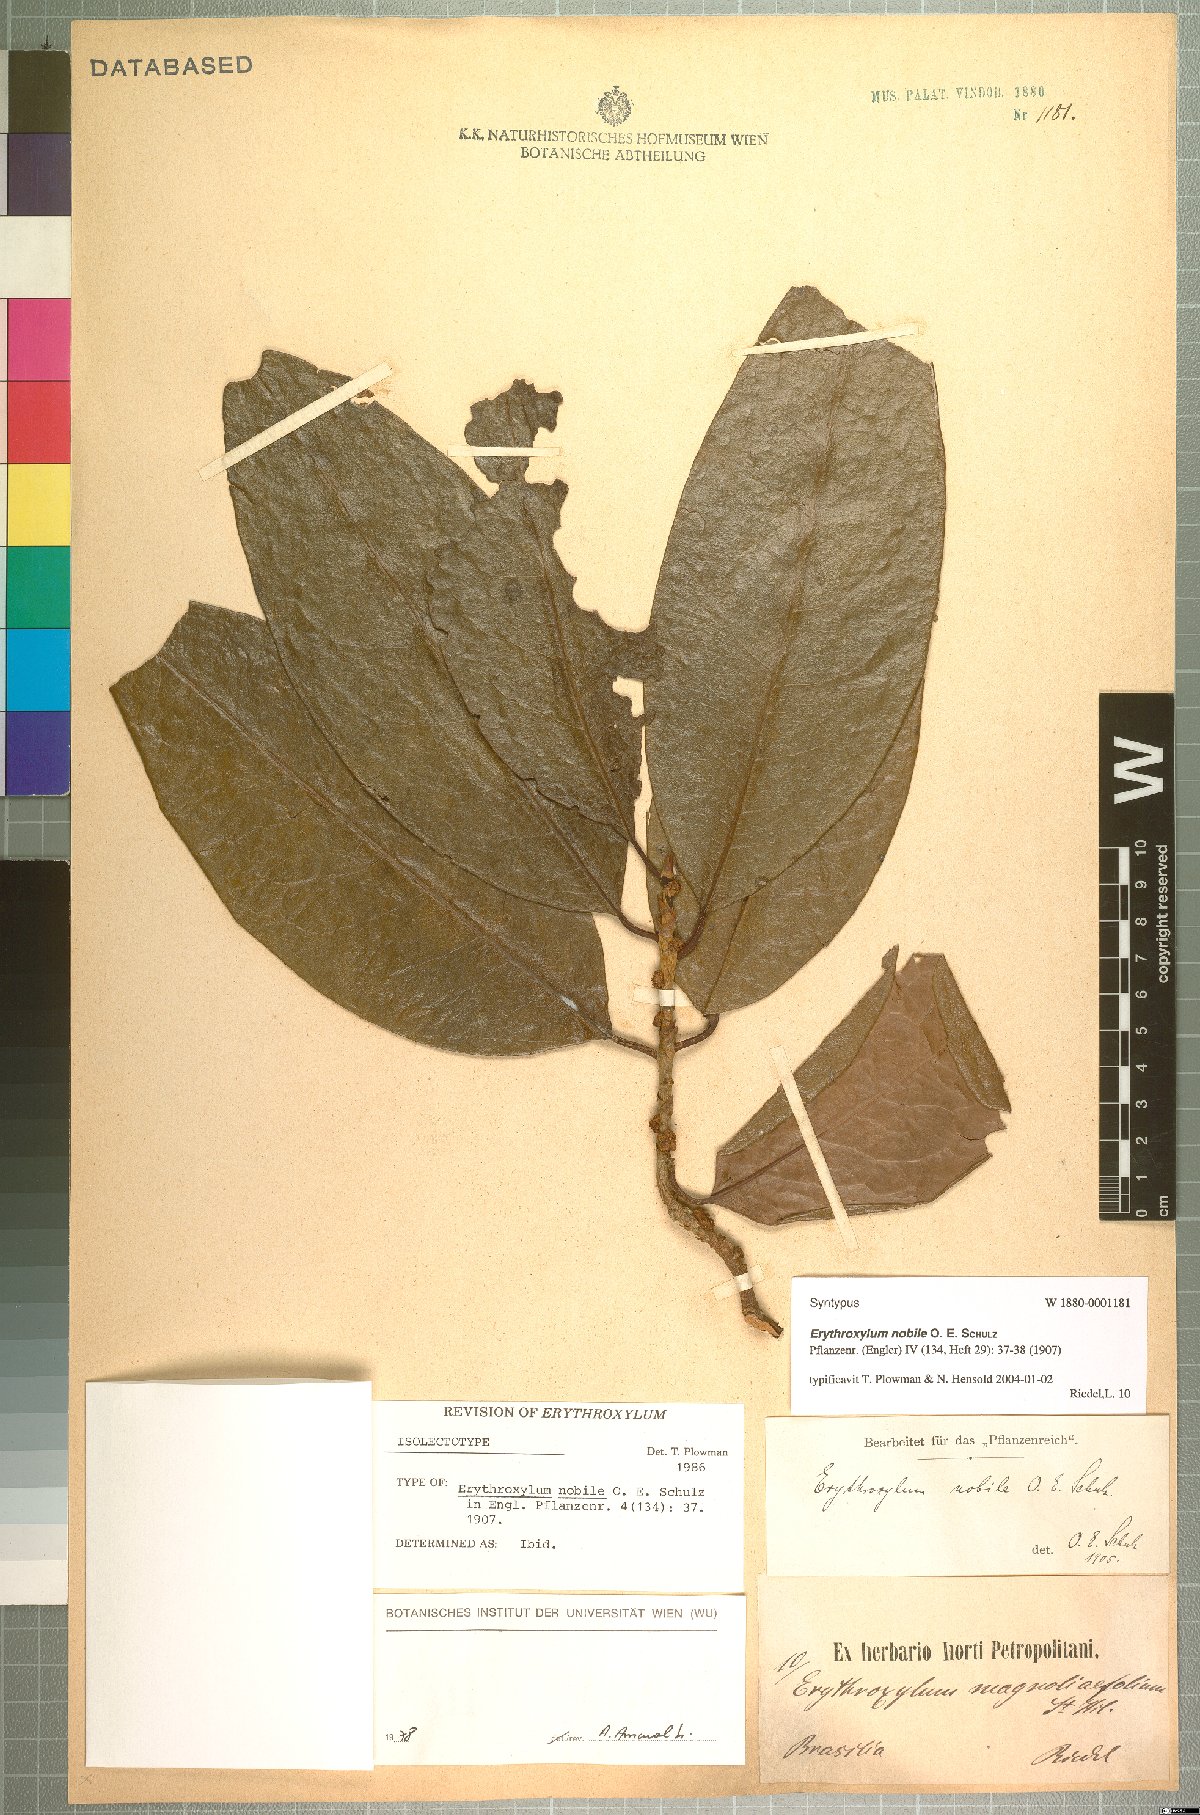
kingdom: Plantae
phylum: Tracheophyta
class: Magnoliopsida
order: Malpighiales
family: Erythroxylaceae
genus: Erythroxylum
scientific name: Erythroxylum nobile
